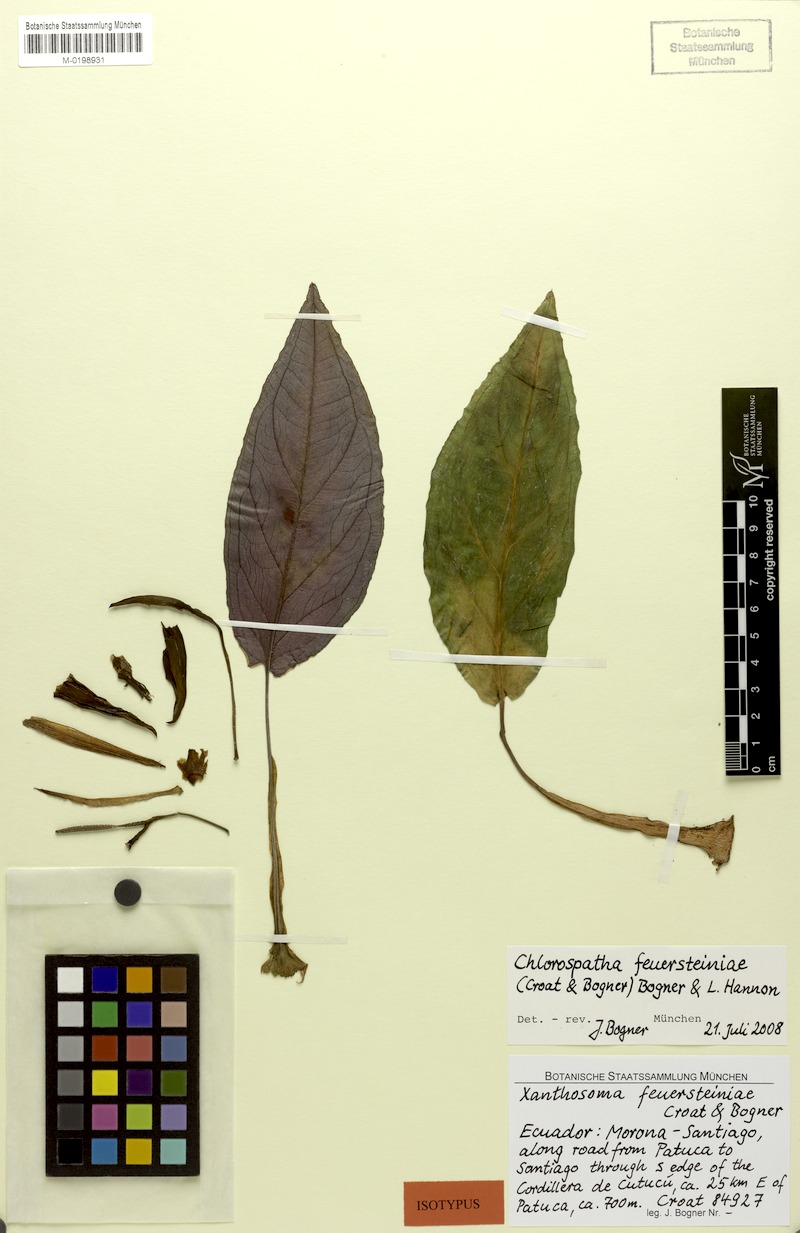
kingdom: Plantae
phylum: Tracheophyta
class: Liliopsida
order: Alismatales
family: Araceae
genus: Chlorospatha
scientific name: Chlorospatha feuersteiniae
